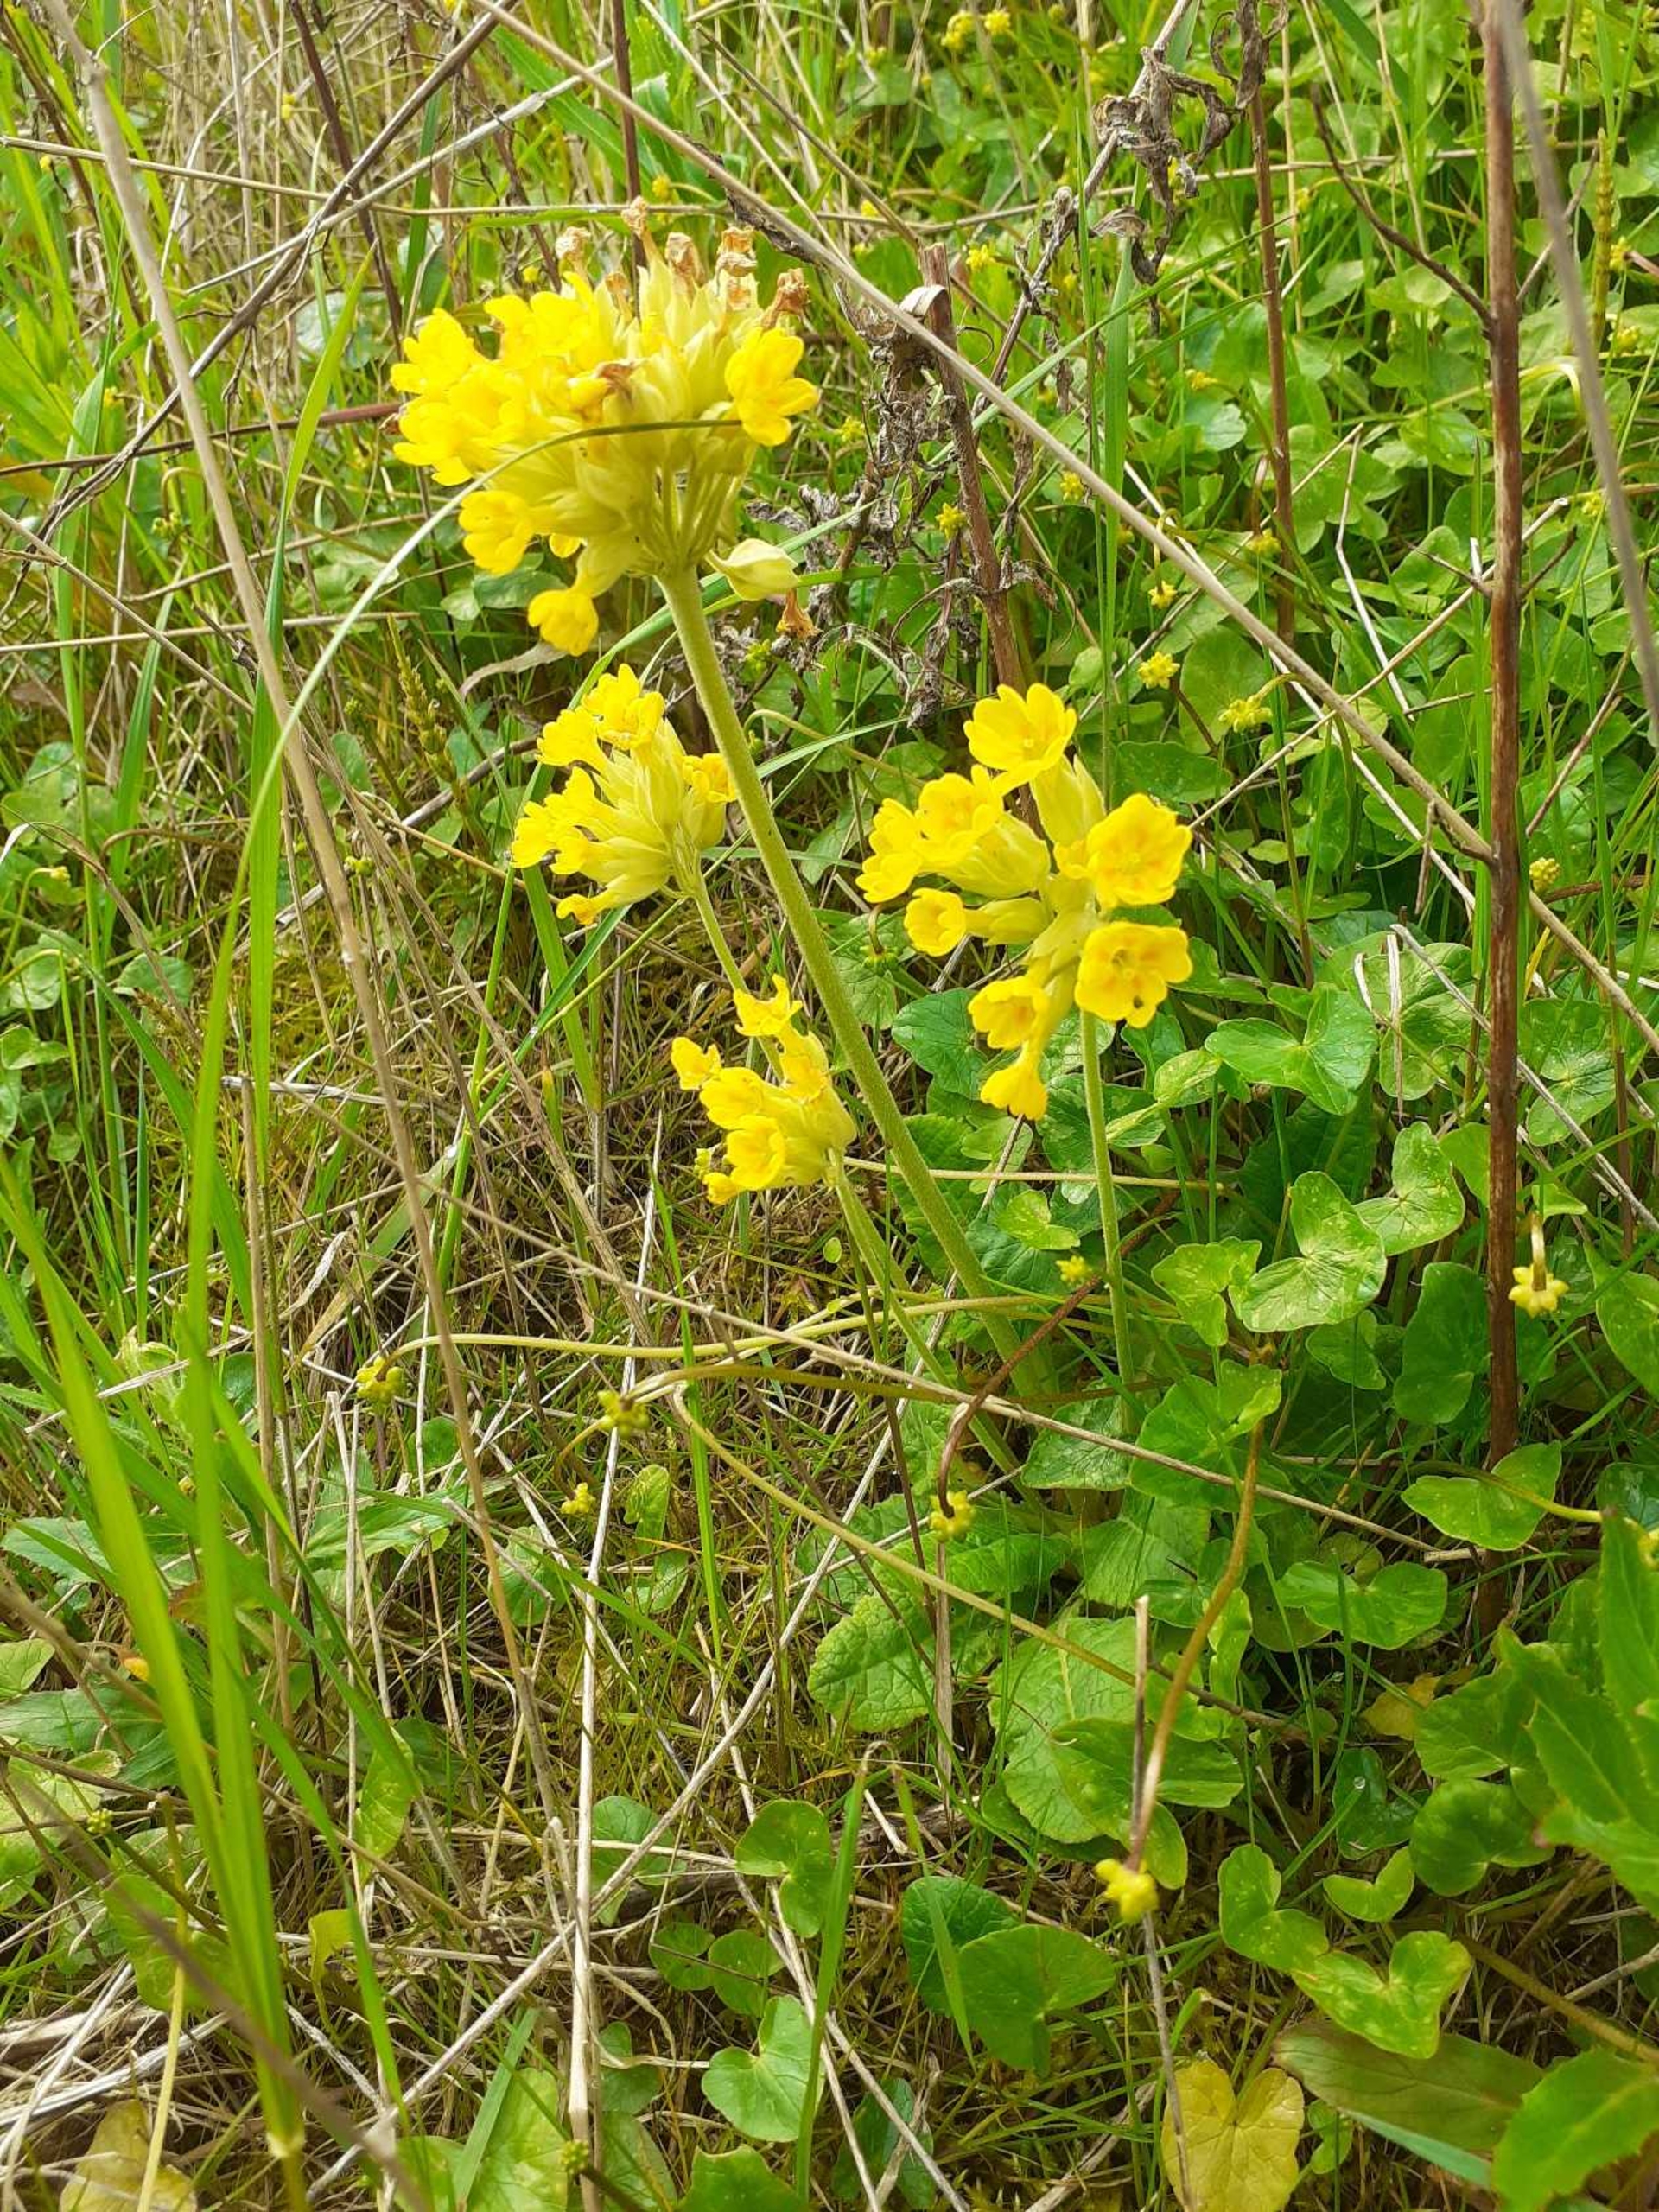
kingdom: Plantae
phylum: Tracheophyta
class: Magnoliopsida
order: Ericales
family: Primulaceae
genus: Primula
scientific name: Primula veris
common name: Hulkravet kodriver
